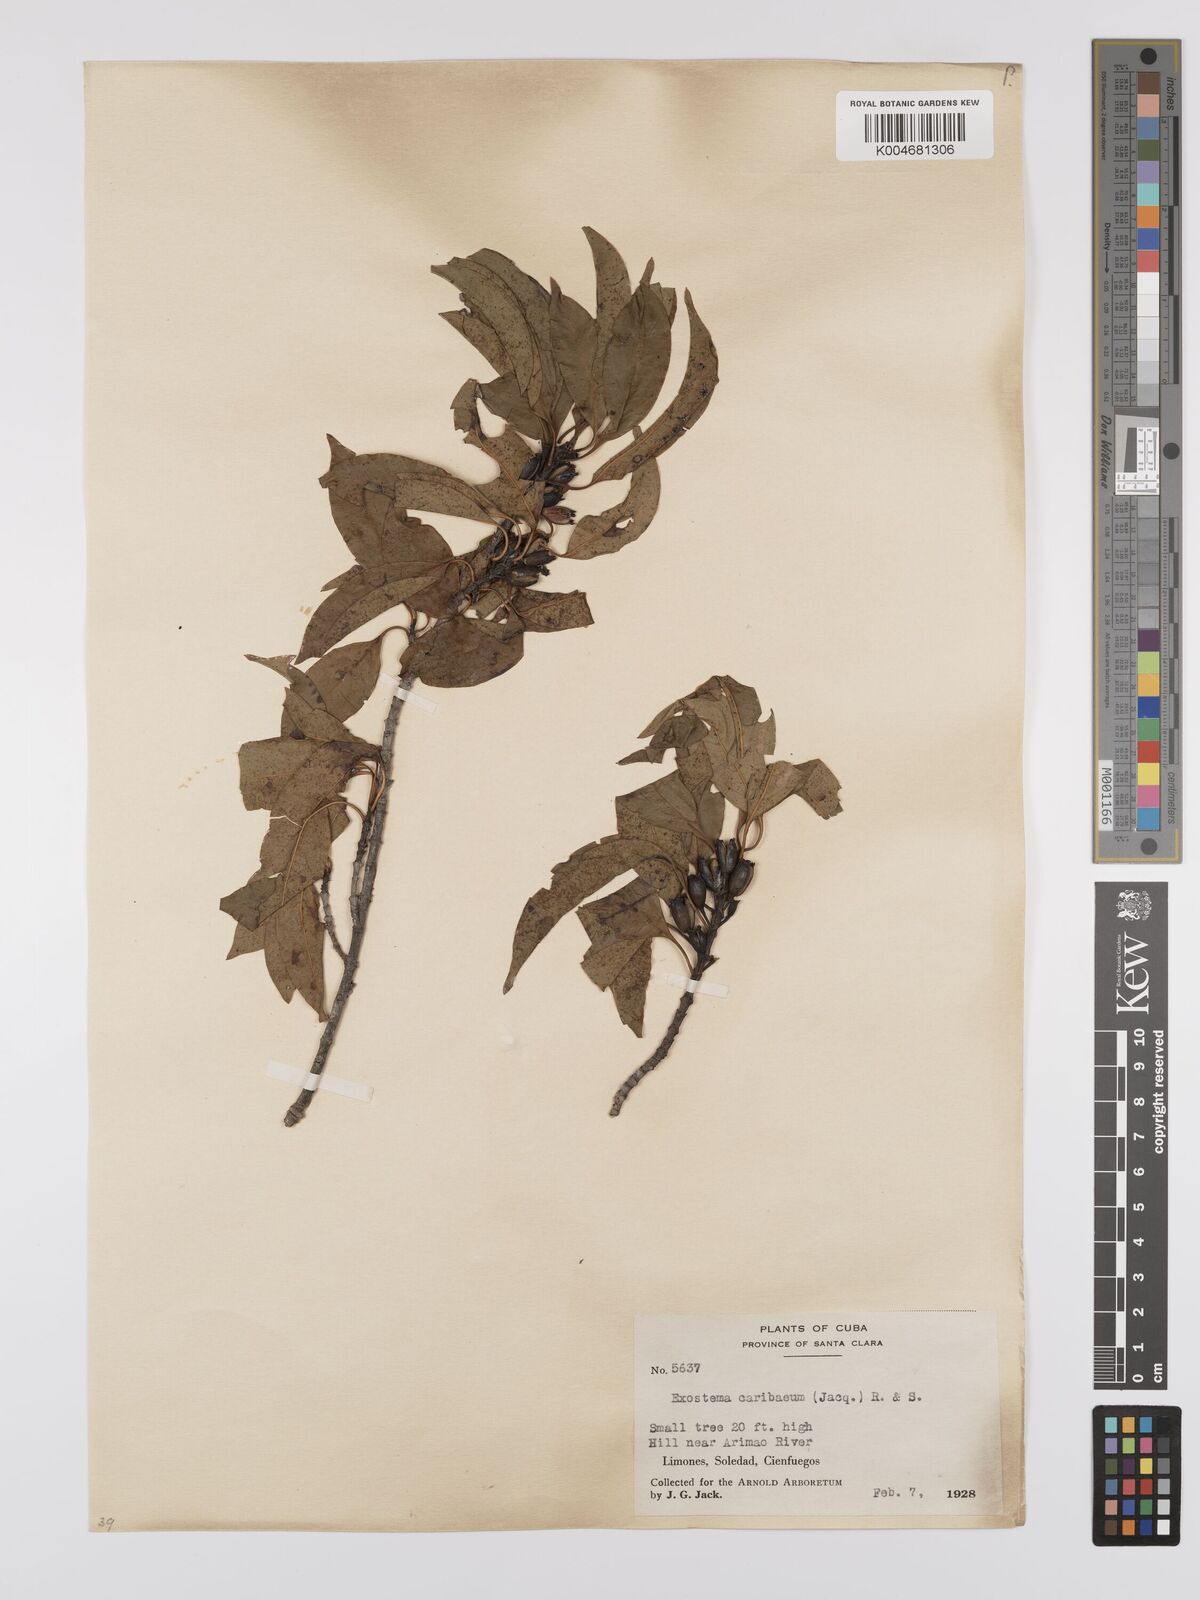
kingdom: Plantae
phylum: Tracheophyta
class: Magnoliopsida
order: Gentianales
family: Rubiaceae
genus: Exostema
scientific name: Exostema caribaeum
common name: Princewood
